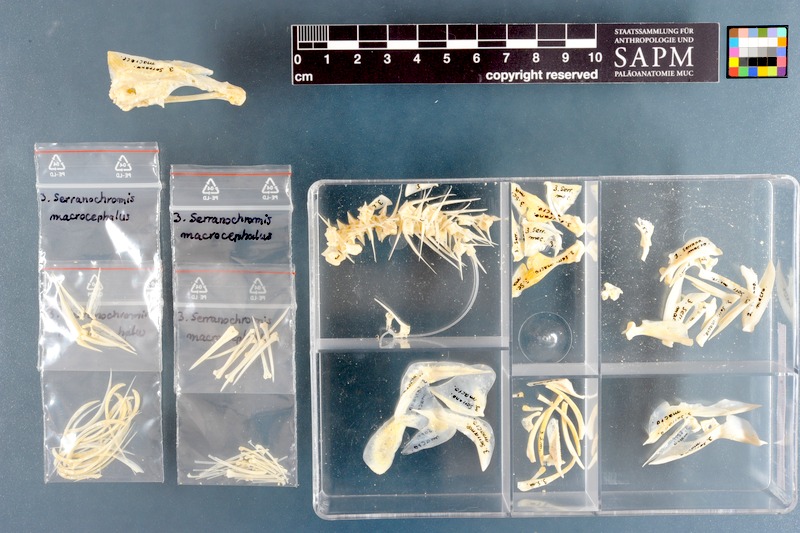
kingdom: Animalia
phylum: Chordata
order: Perciformes
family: Cichlidae
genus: Serranochromis
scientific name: Serranochromis macrocephalus
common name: Purpleface largemouth
